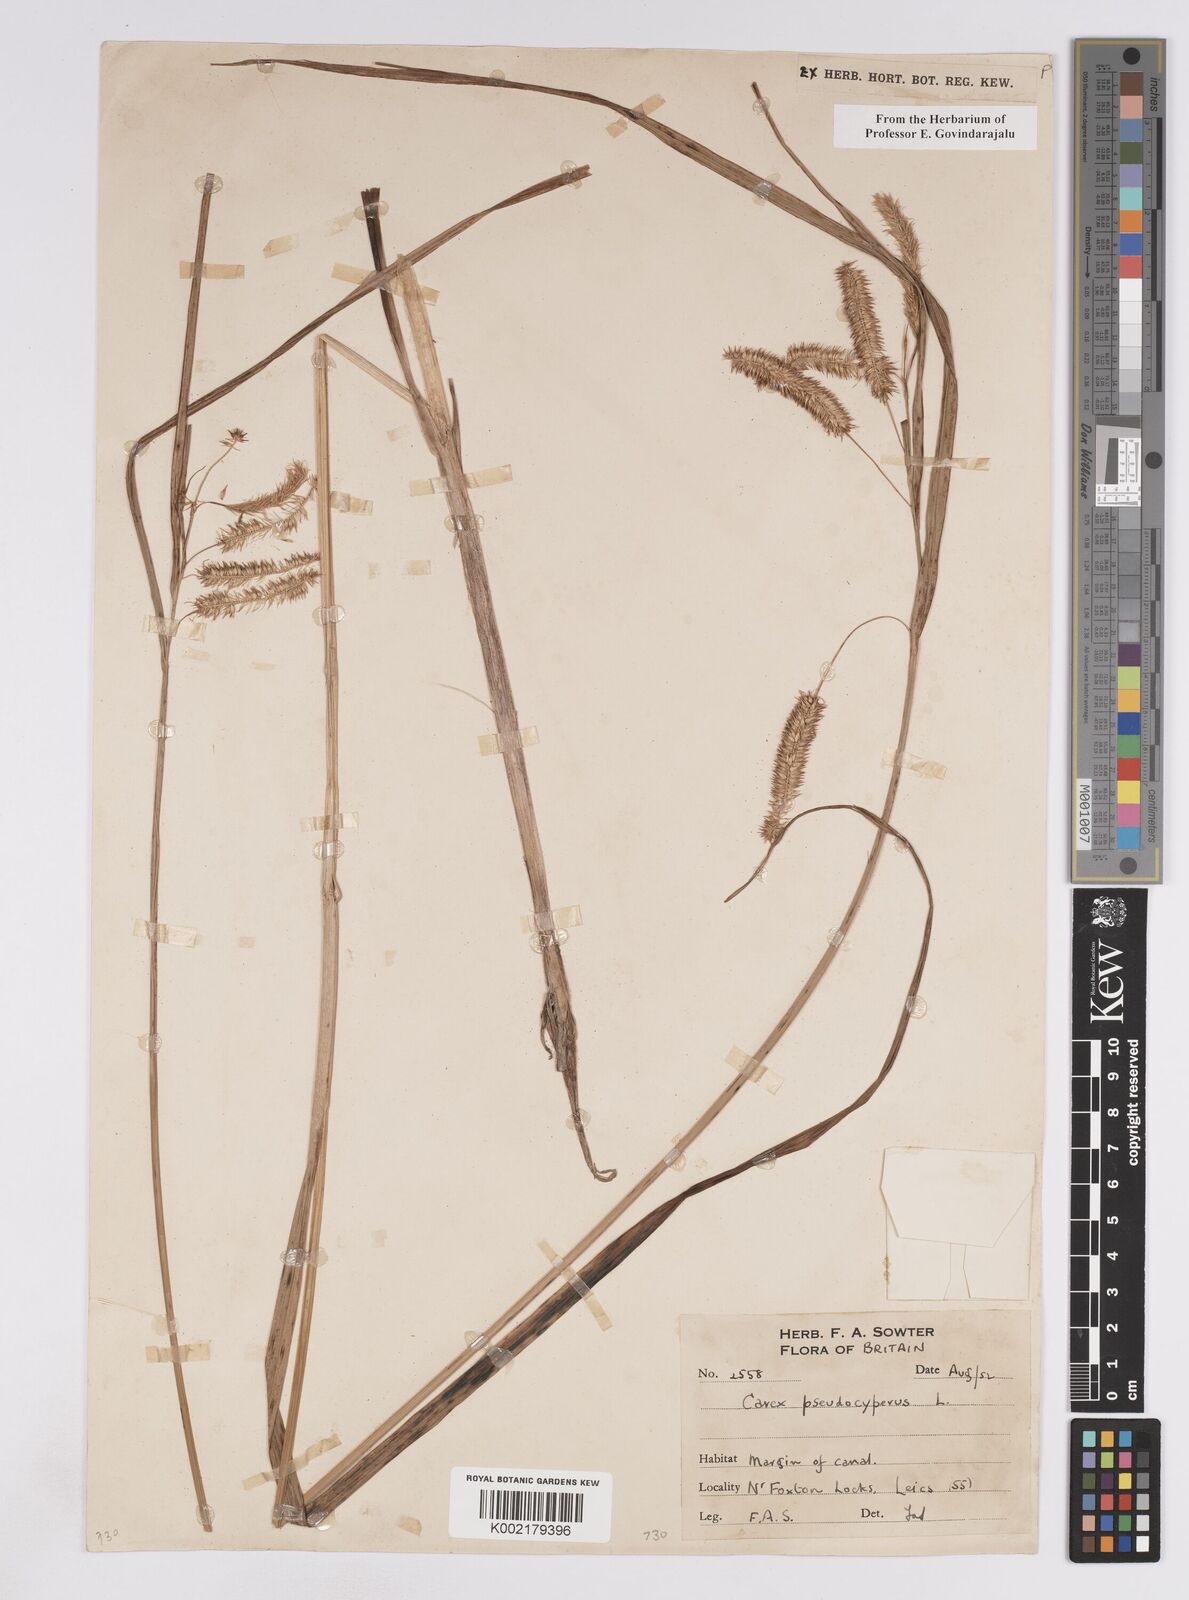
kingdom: Plantae
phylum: Tracheophyta
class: Liliopsida
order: Poales
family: Cyperaceae
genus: Carex
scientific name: Carex pseudocyperus
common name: Cyperus sedge
